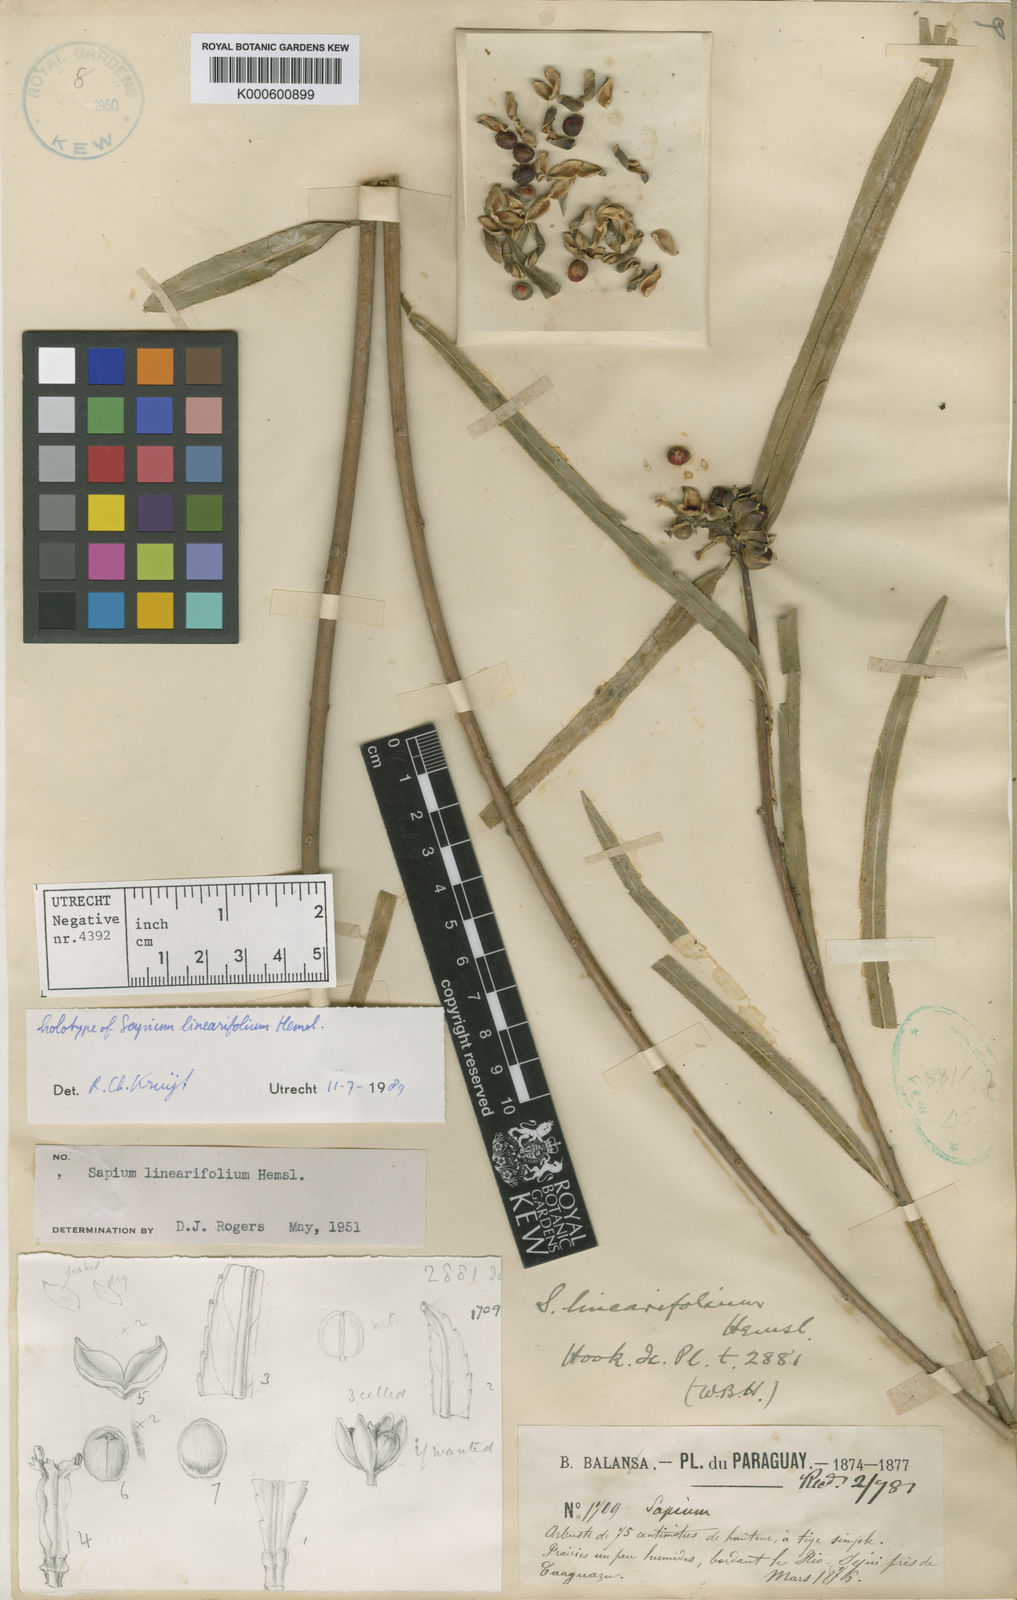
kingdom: Plantae
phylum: Tracheophyta
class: Magnoliopsida
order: Malpighiales
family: Euphorbiaceae
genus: Sapium
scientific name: Sapium haematospermum
